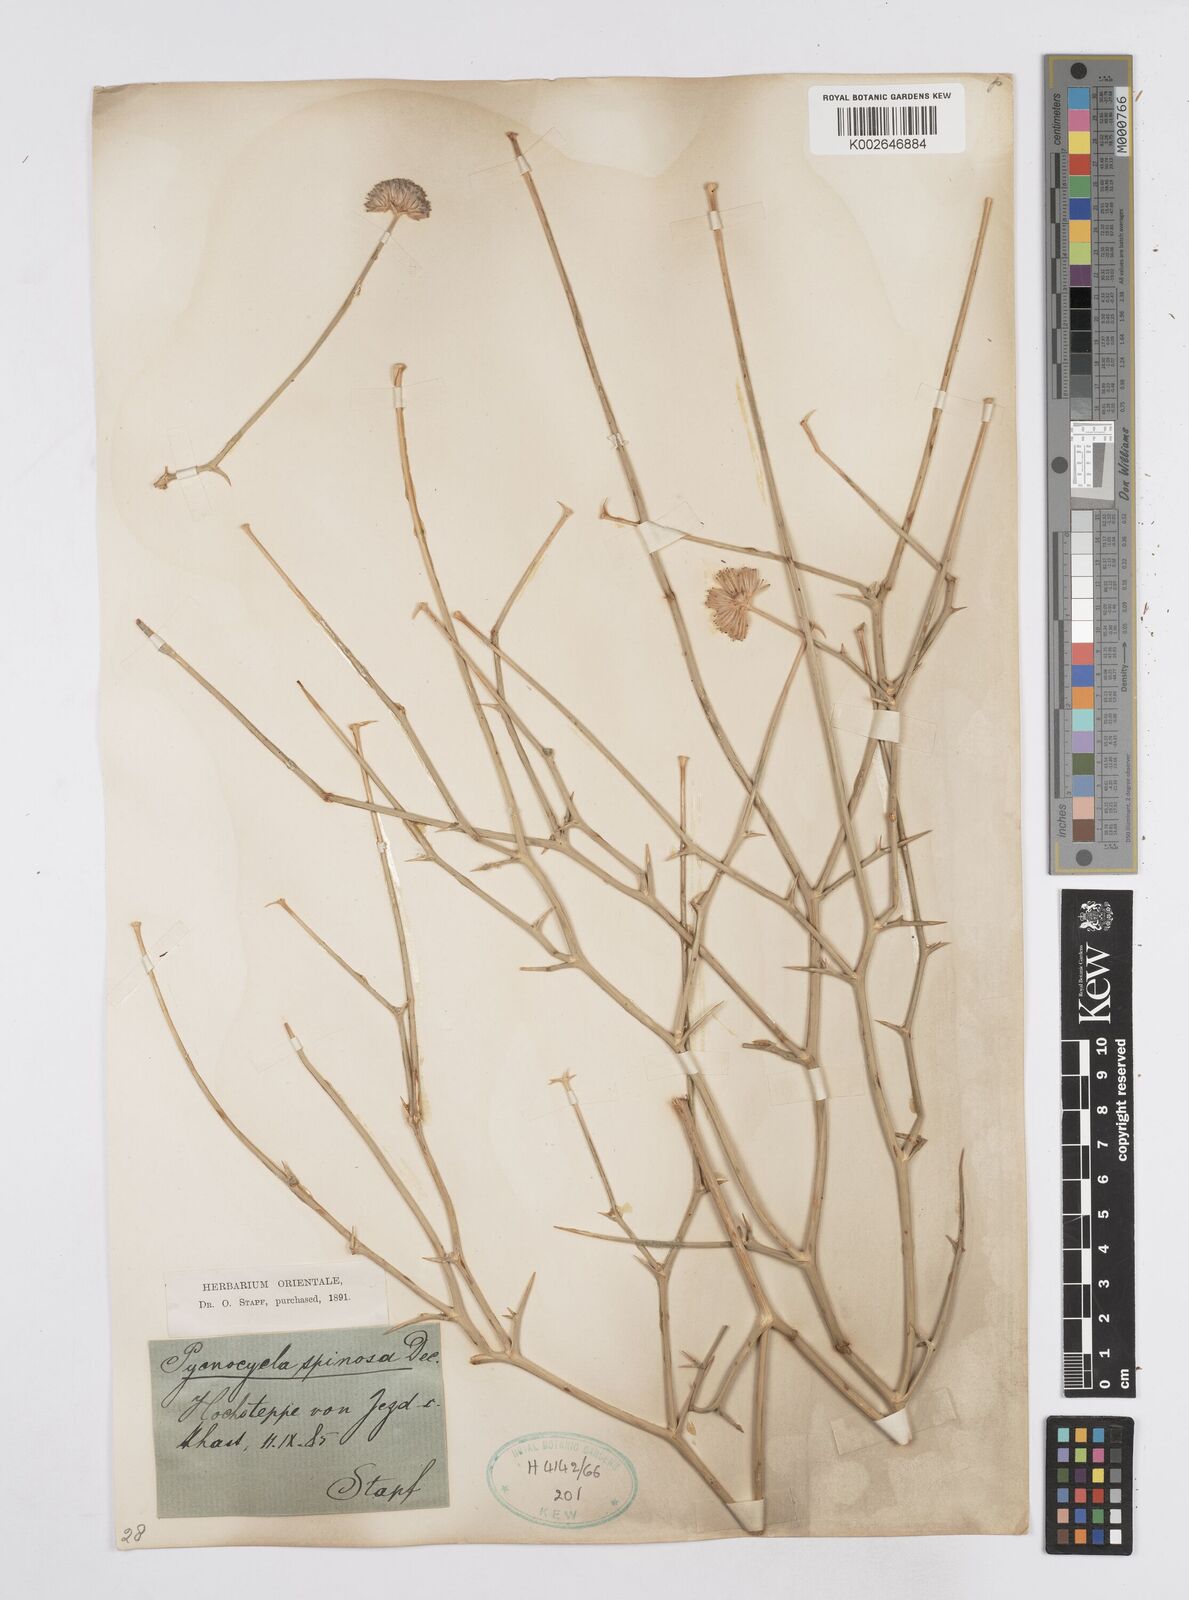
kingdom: Plantae
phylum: Tracheophyta
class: Magnoliopsida
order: Apiales
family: Apiaceae
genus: Pycnocycla
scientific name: Pycnocycla spinosa
